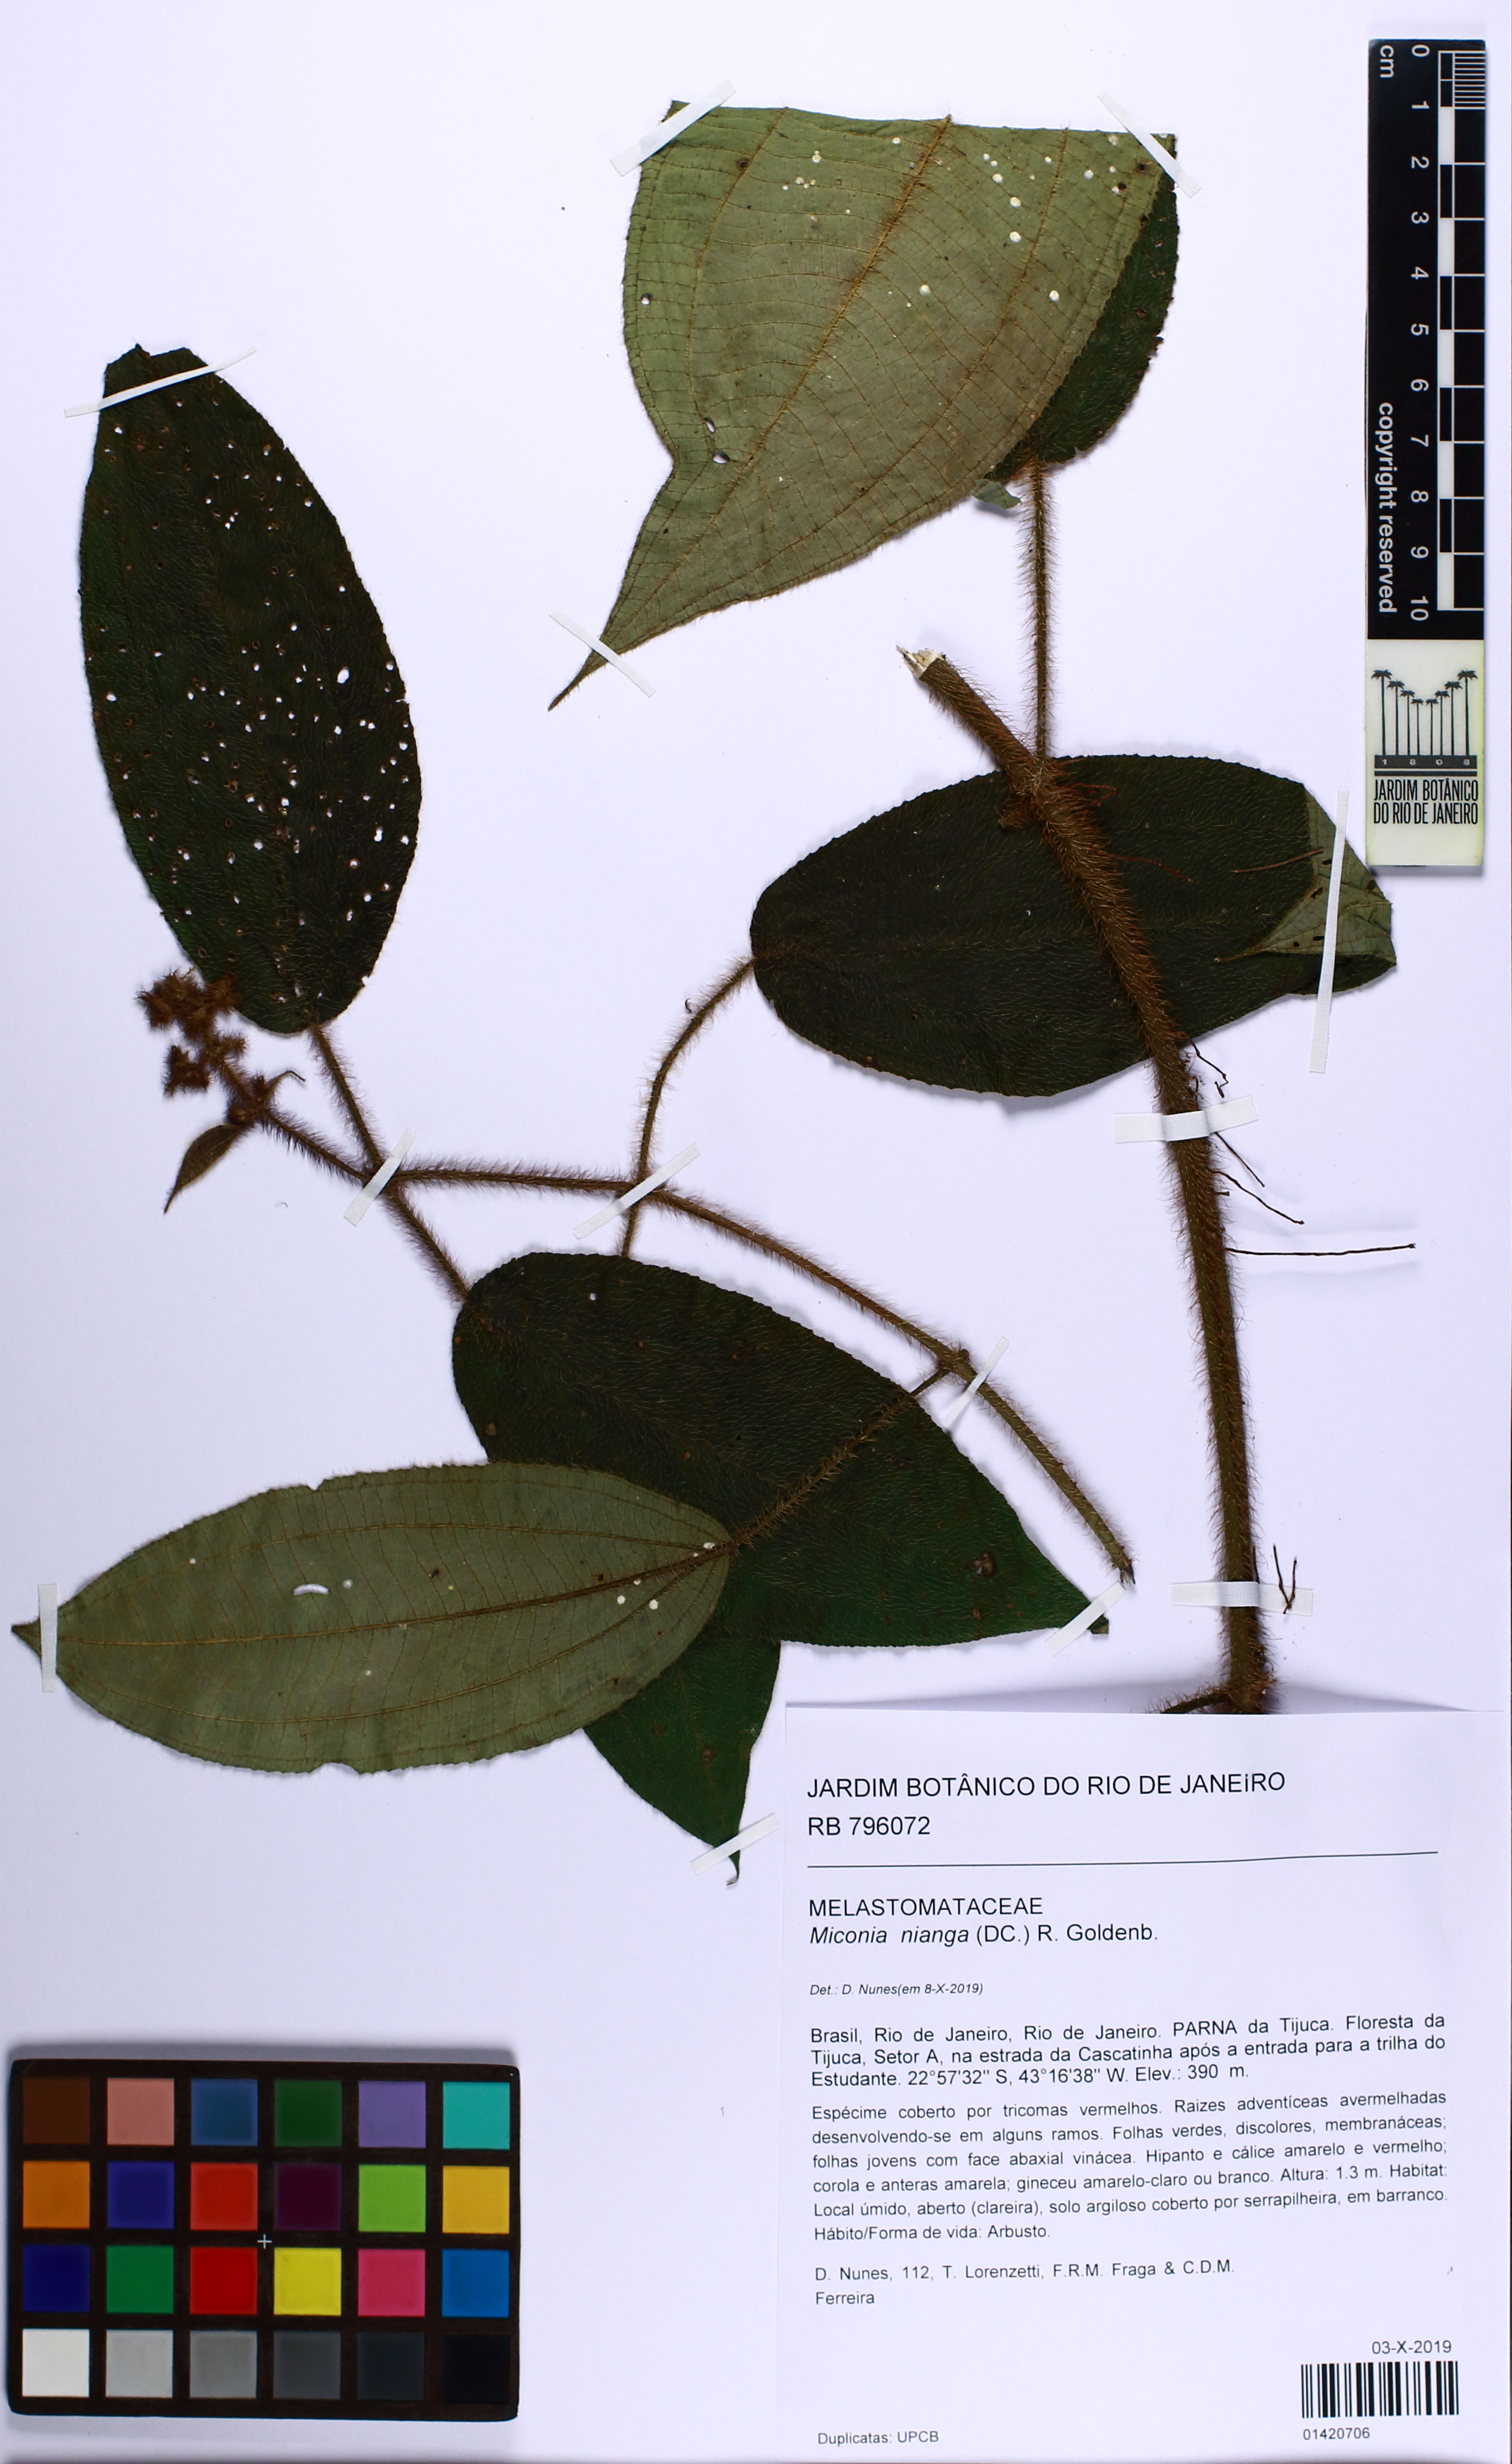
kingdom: Plantae
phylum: Tracheophyta
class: Magnoliopsida
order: Myrtales
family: Melastomataceae
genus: Miconia
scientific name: Miconia nianga
